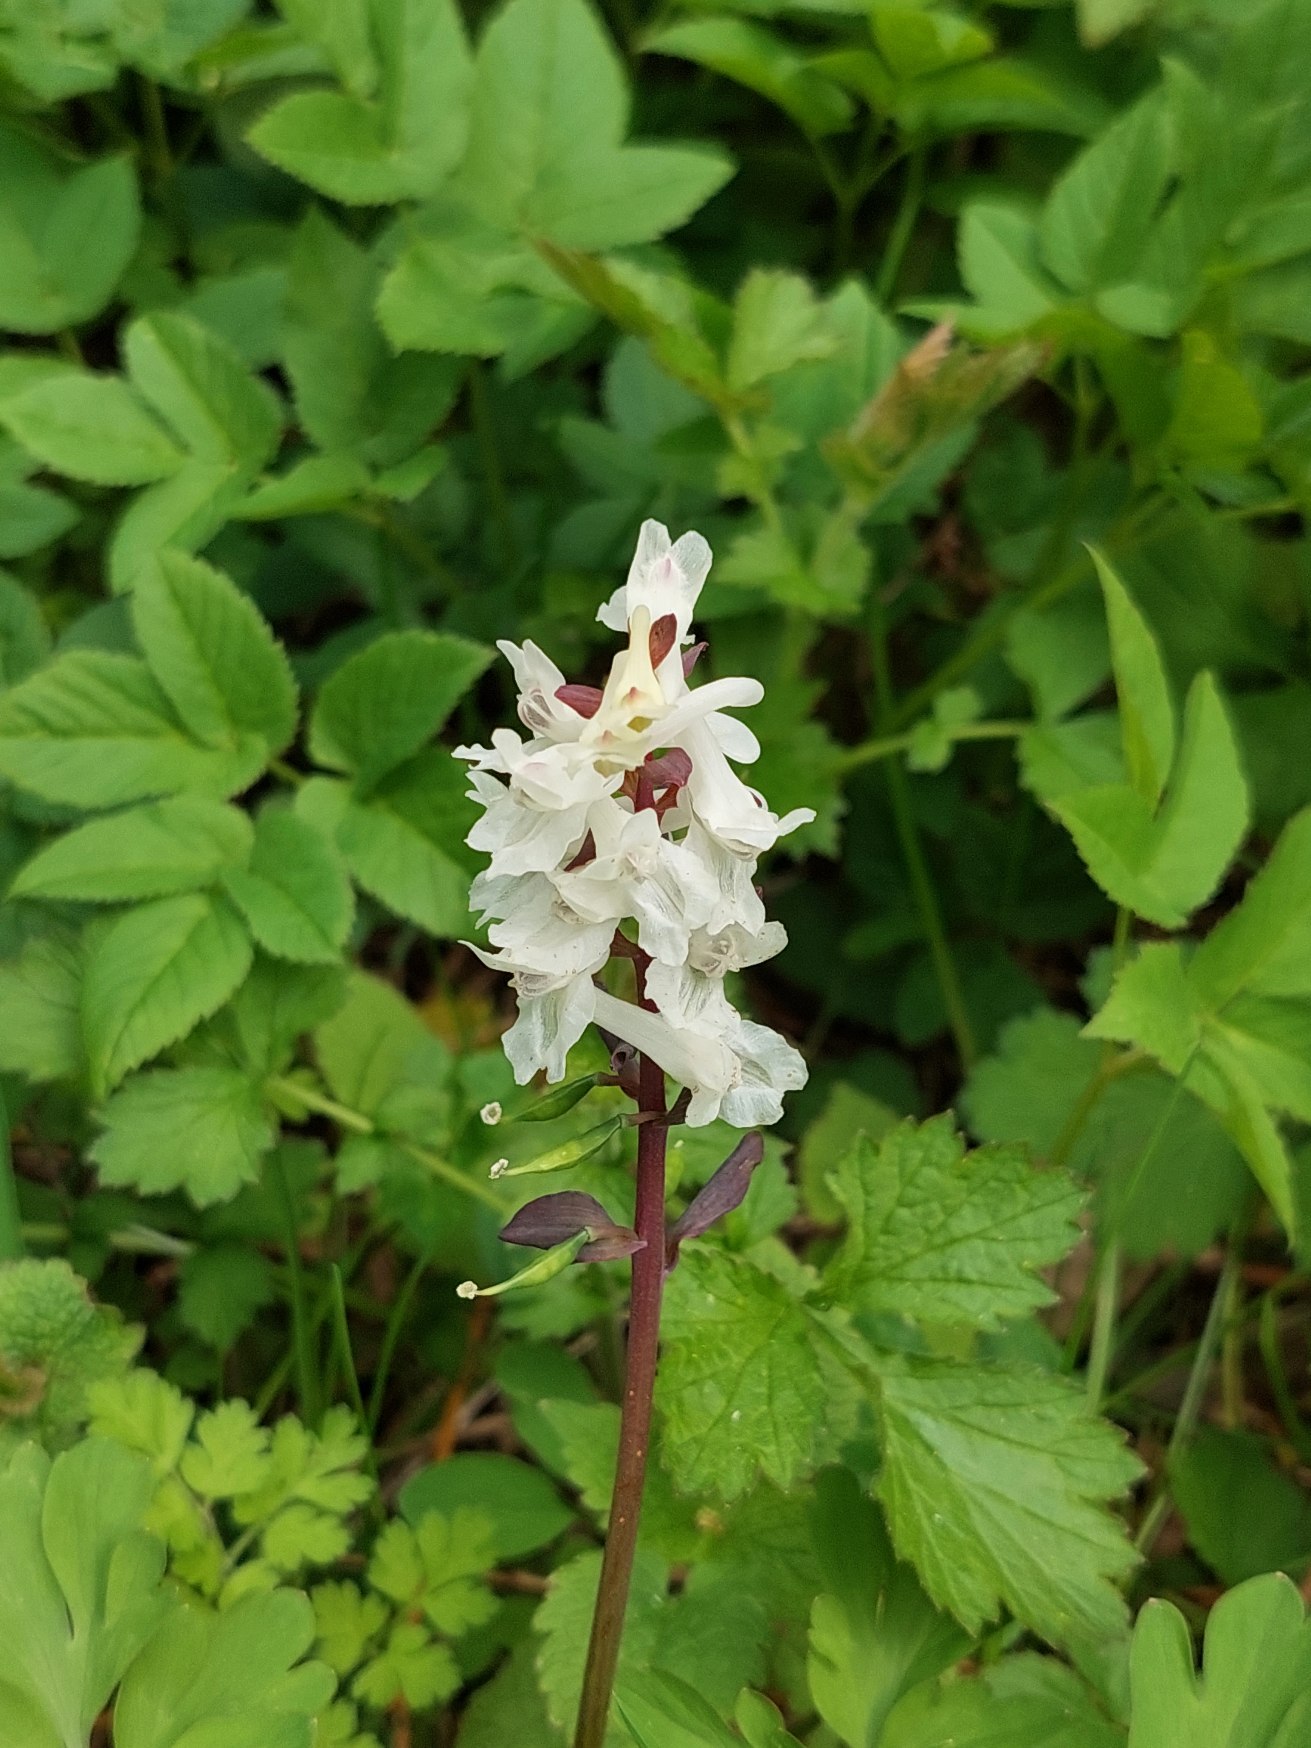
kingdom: Plantae
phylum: Tracheophyta
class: Magnoliopsida
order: Ranunculales
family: Papaveraceae
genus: Corydalis
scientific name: Corydalis cava
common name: Hulrodet lærkespore
